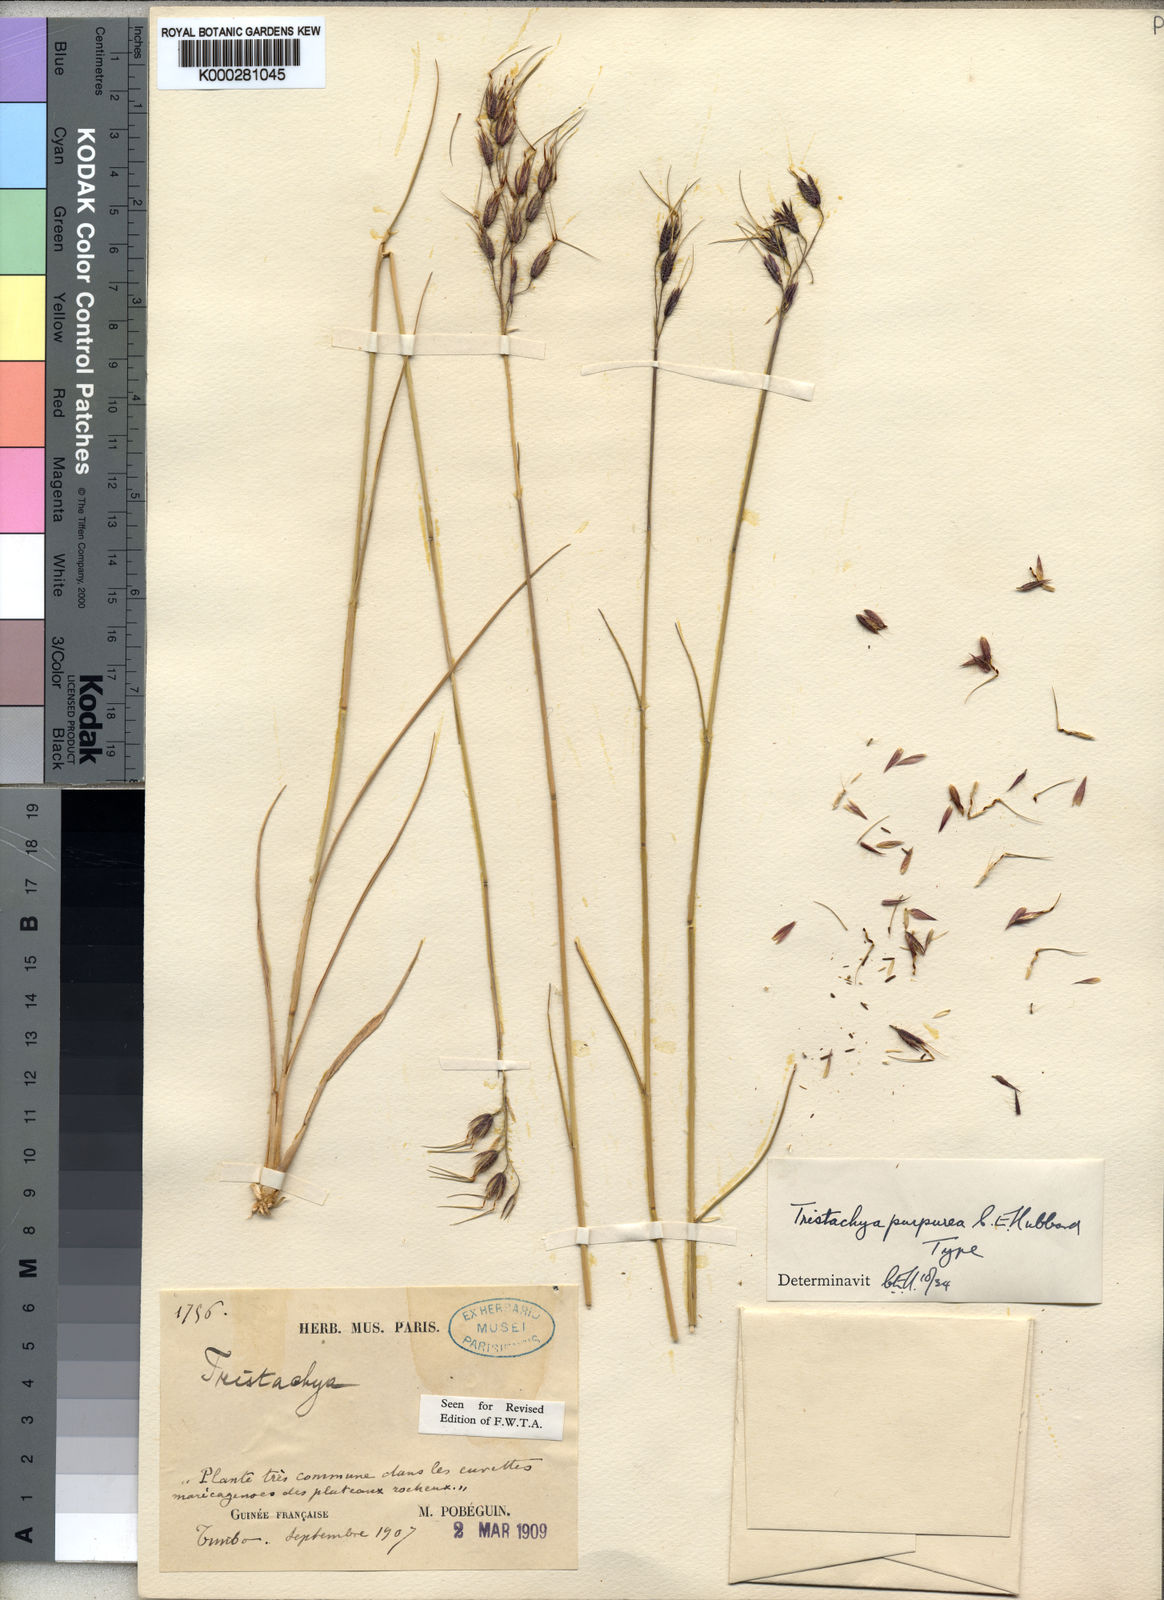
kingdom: Plantae
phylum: Tracheophyta
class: Liliopsida
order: Poales
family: Poaceae
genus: Dilophotriche
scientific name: Dilophotriche
